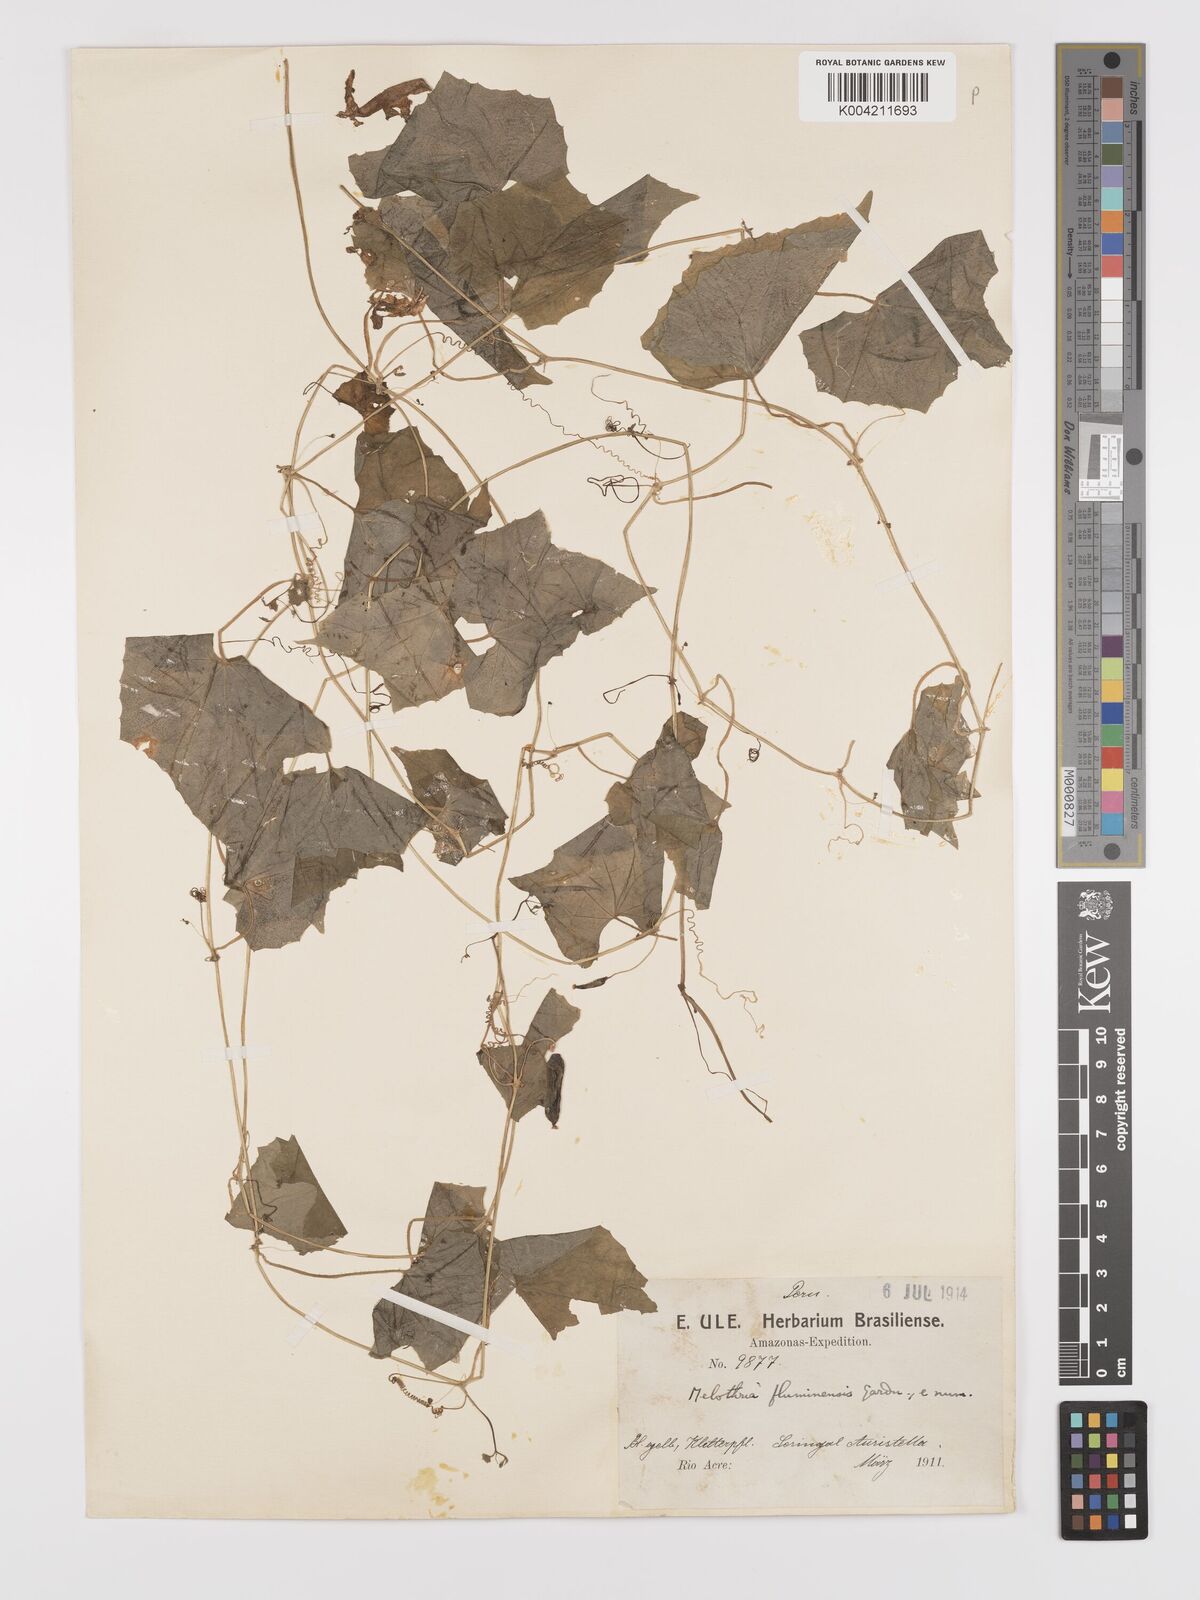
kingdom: Plantae
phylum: Tracheophyta
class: Magnoliopsida
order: Cucurbitales
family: Cucurbitaceae
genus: Melothria
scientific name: Melothria
